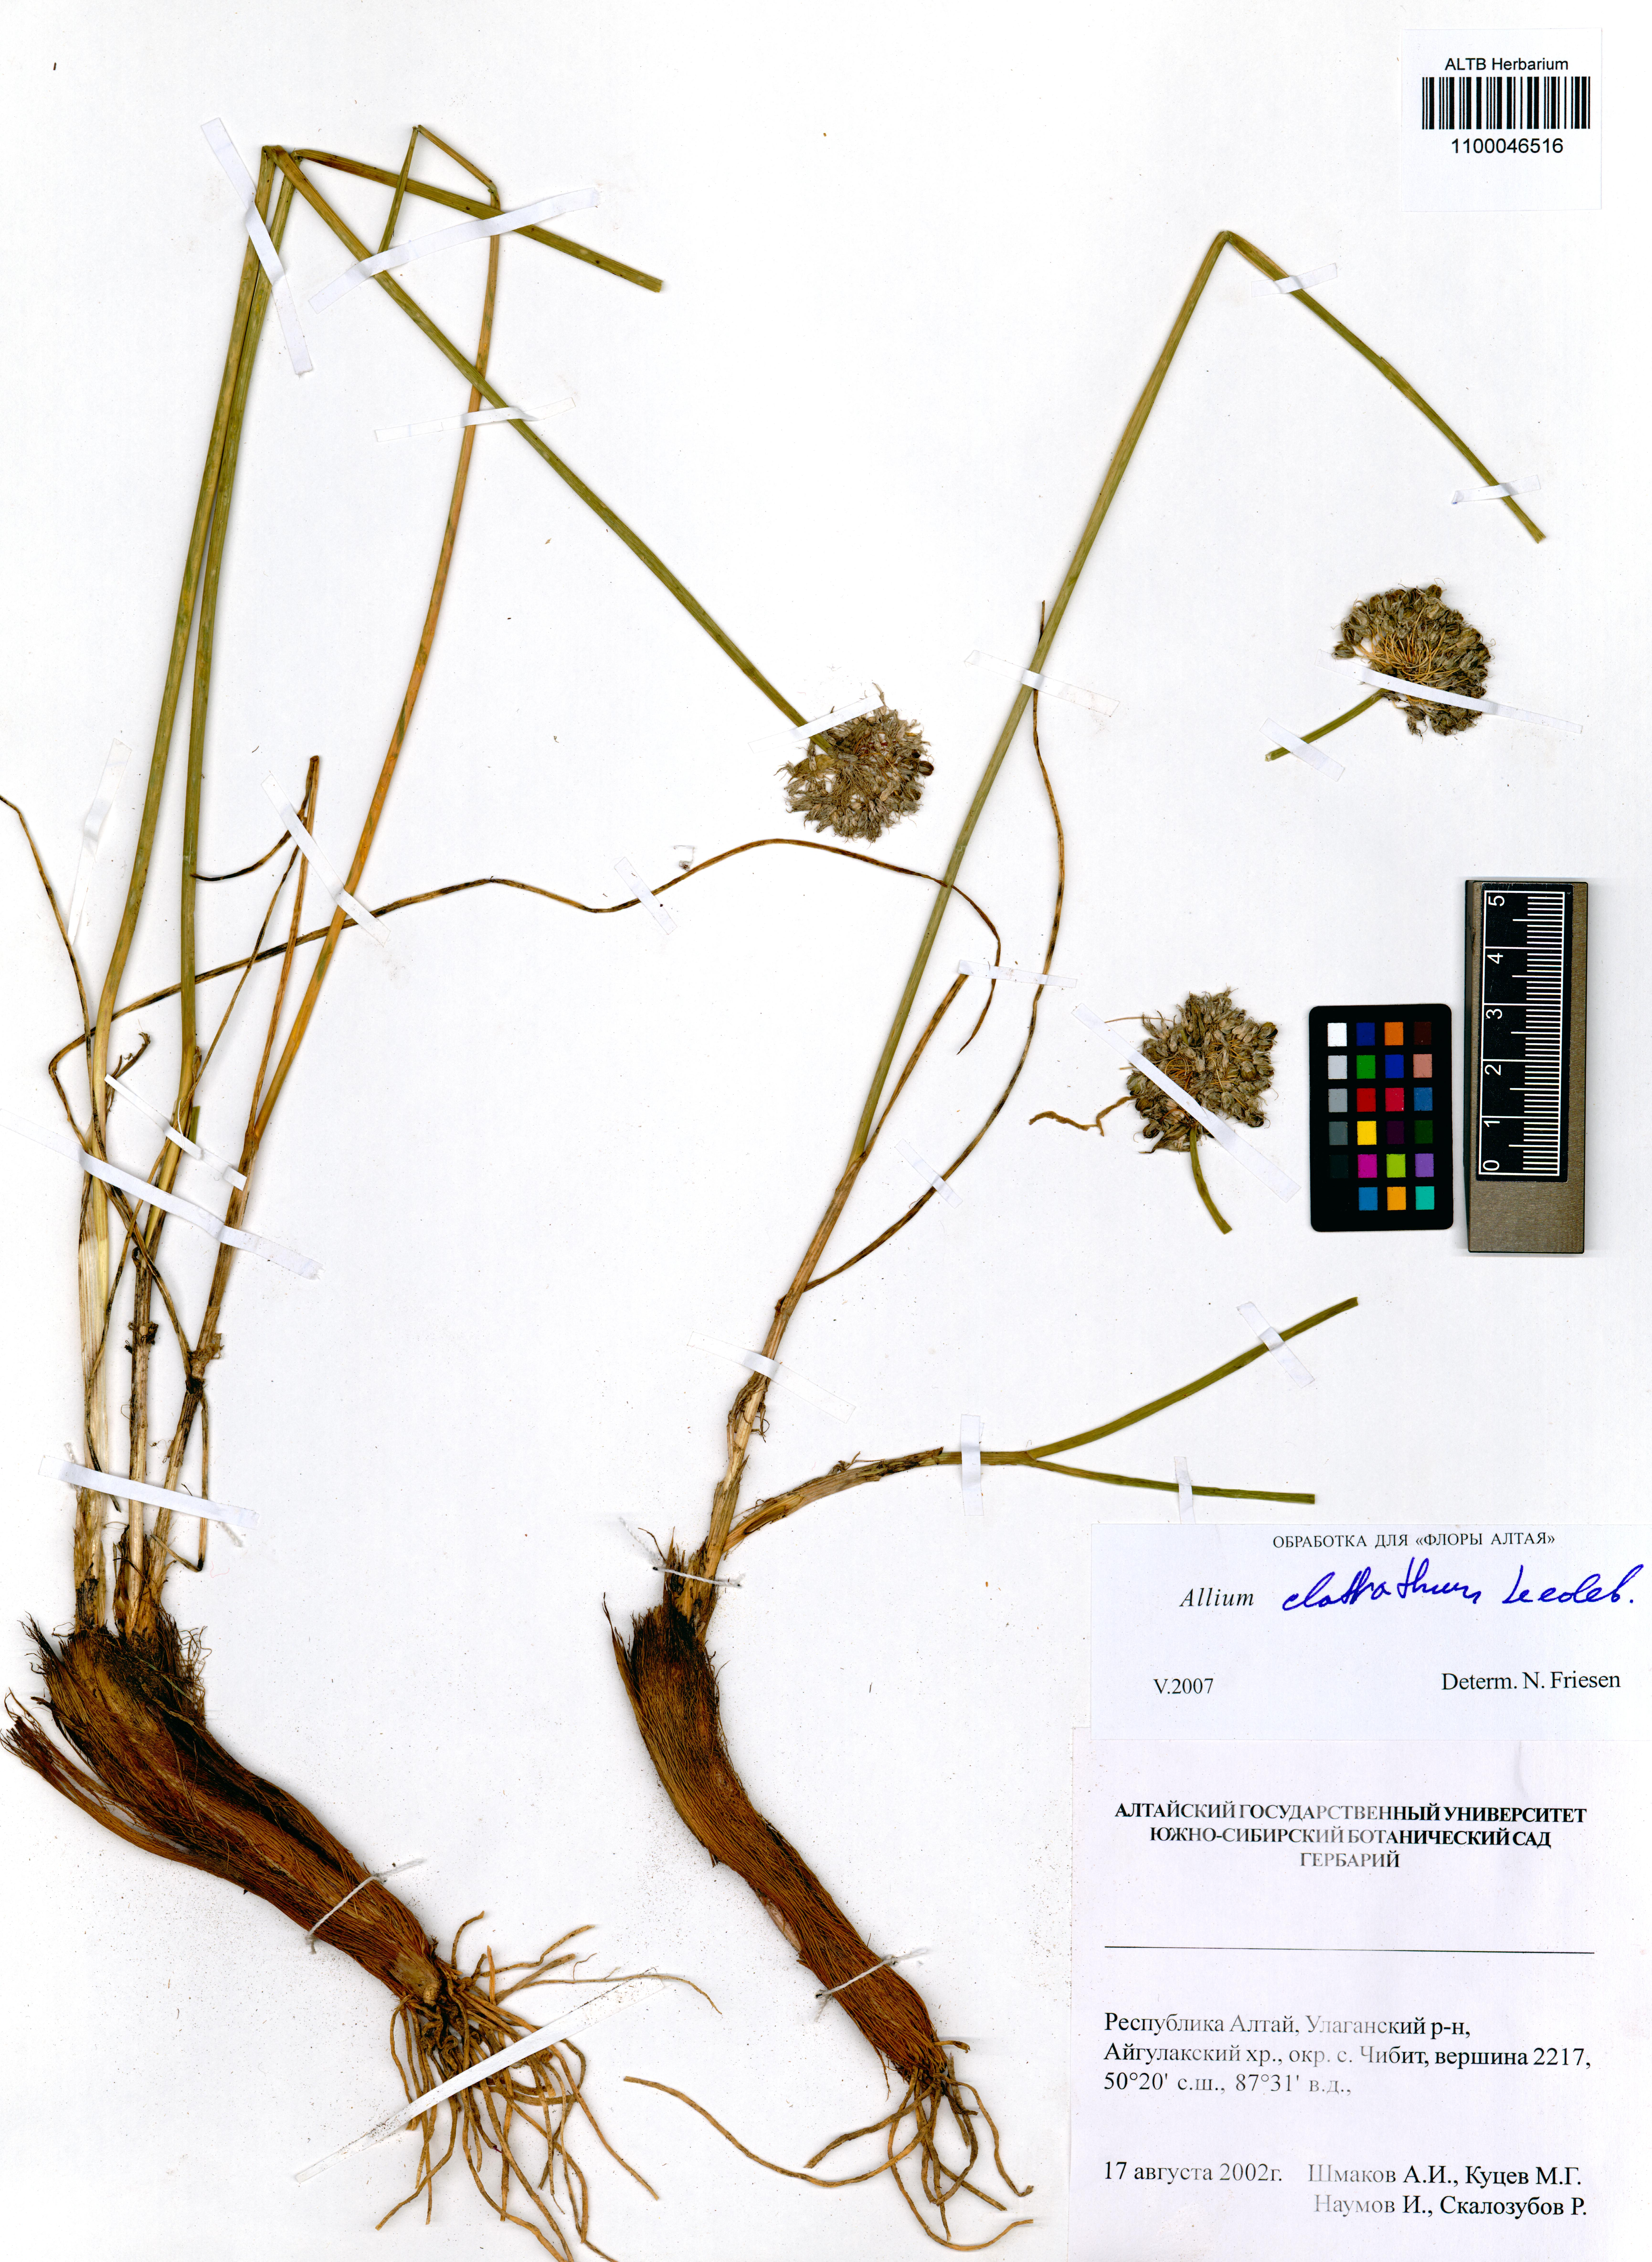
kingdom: Plantae
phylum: Tracheophyta
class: Liliopsida
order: Asparagales
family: Amaryllidaceae
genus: Allium
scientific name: Allium clathratum
